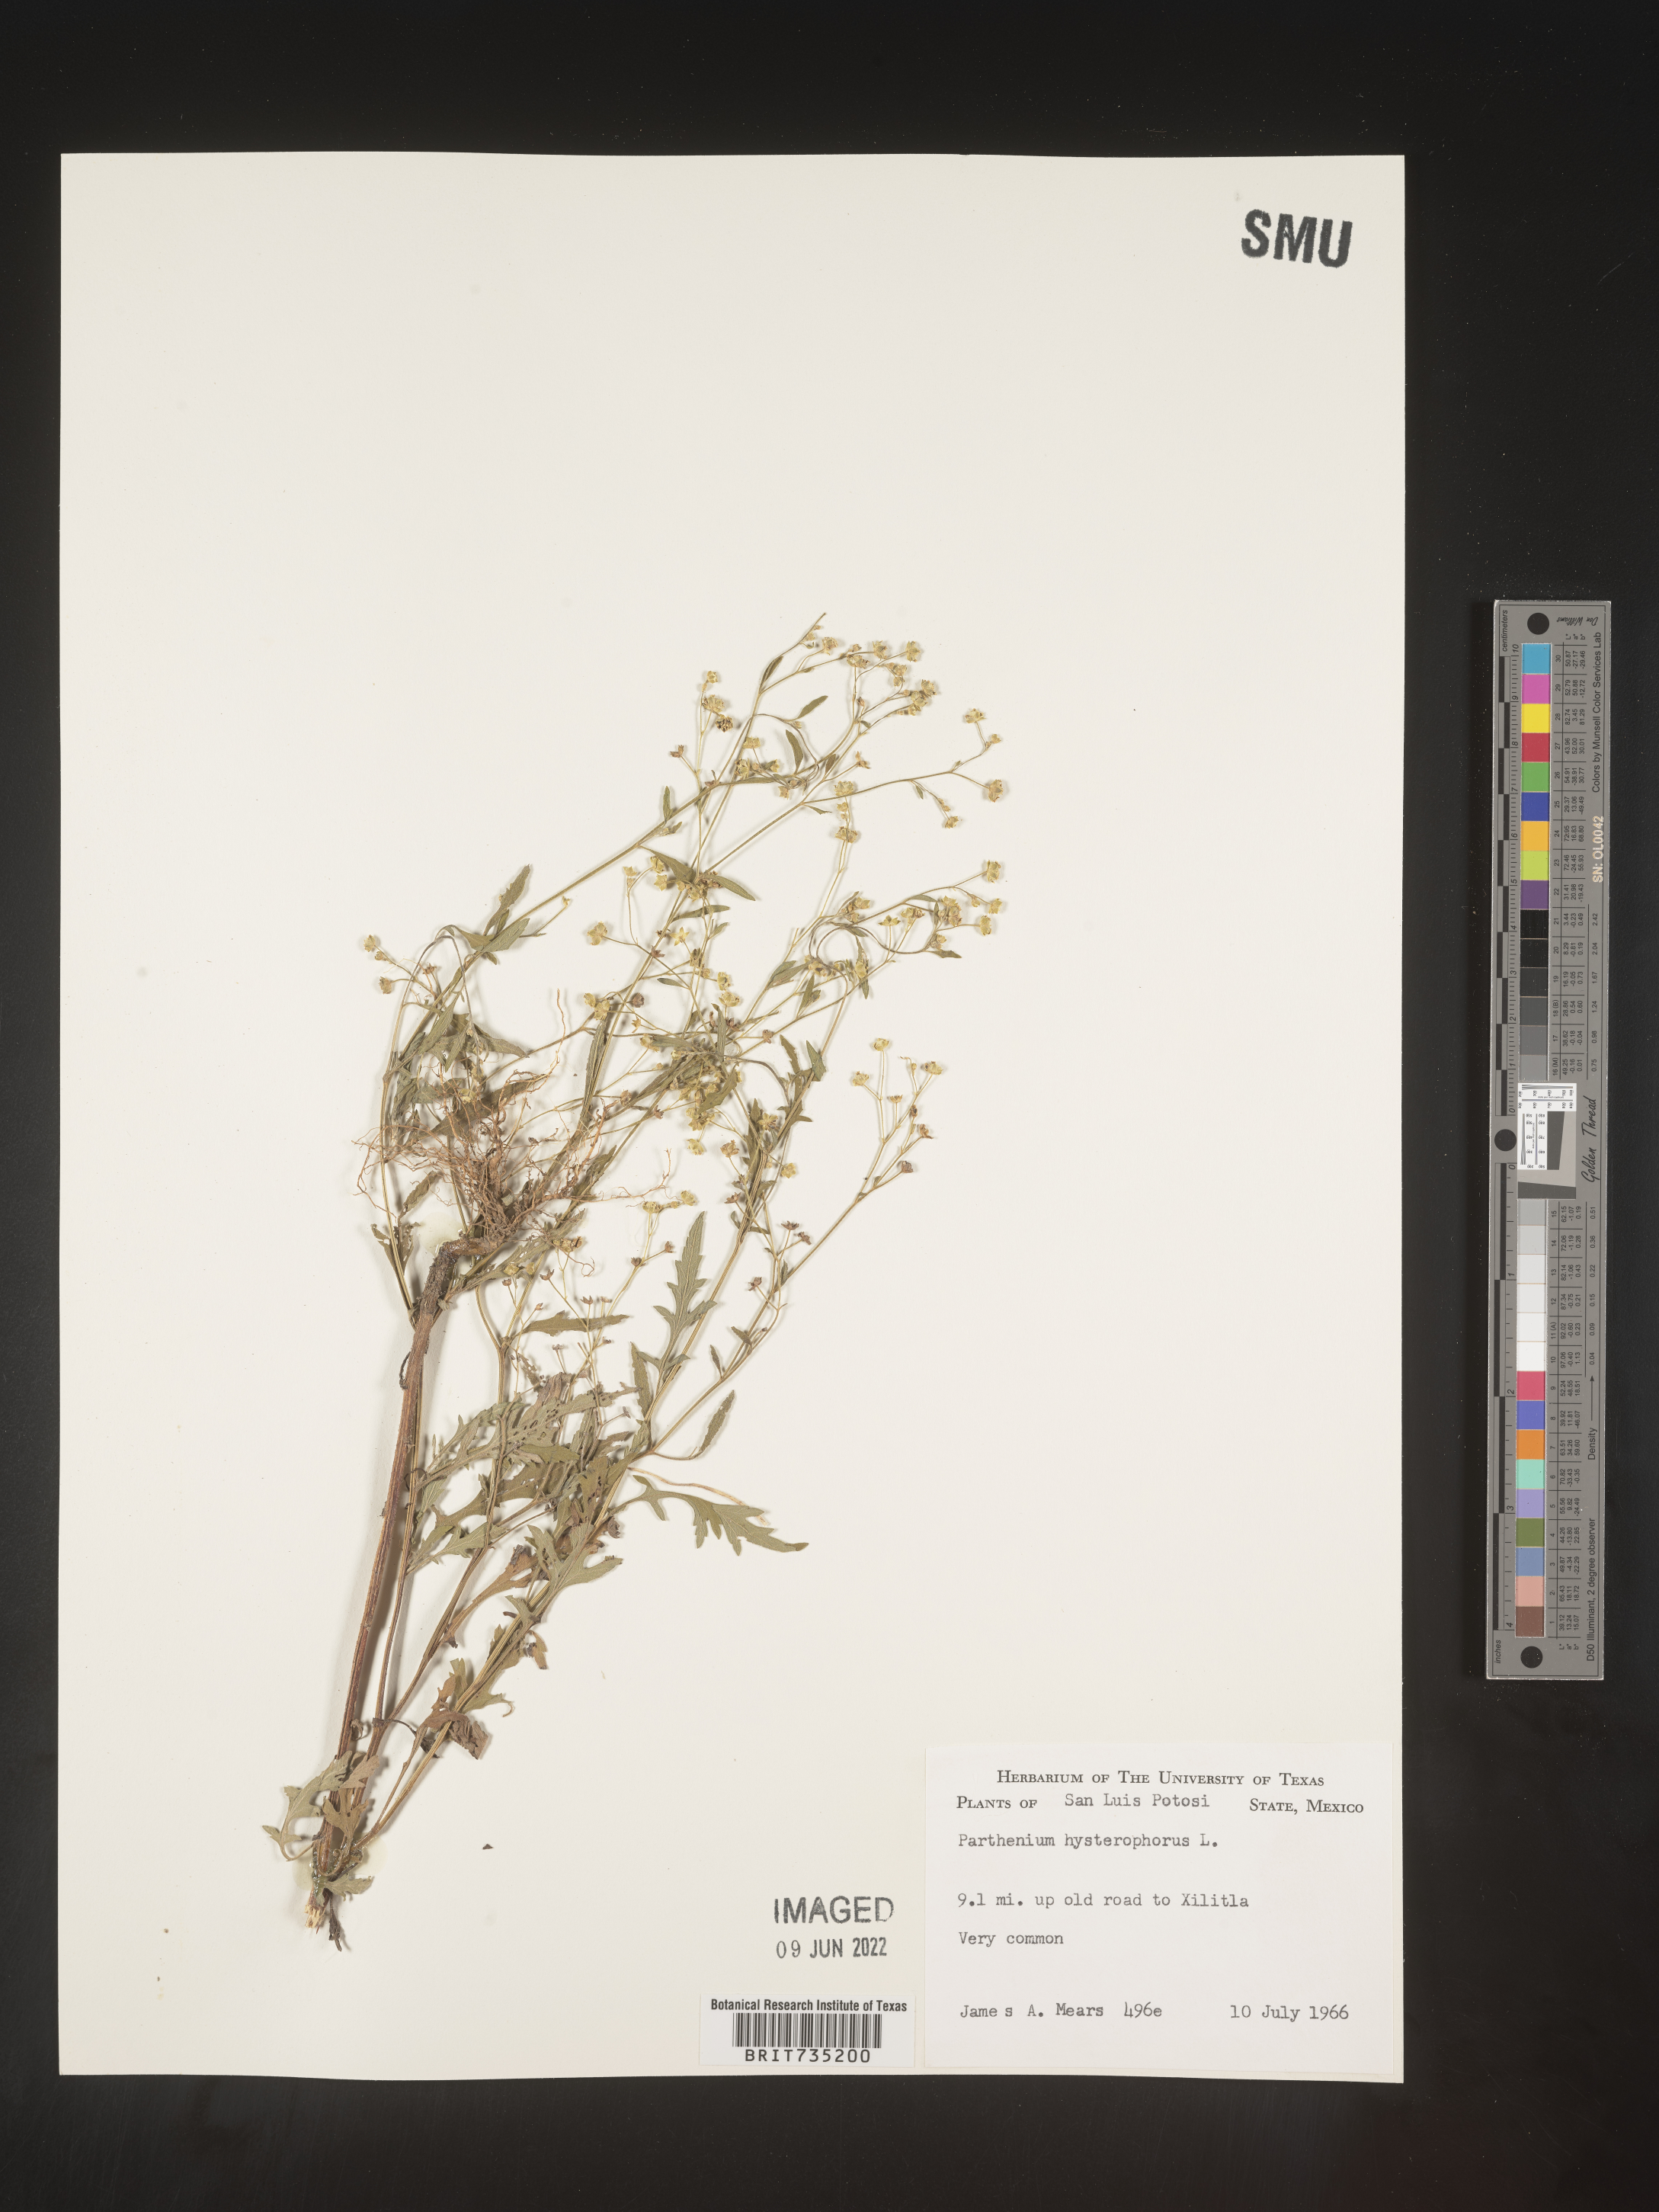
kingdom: Plantae
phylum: Tracheophyta
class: Magnoliopsida
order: Asterales
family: Asteraceae
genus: Parthenium
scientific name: Parthenium hysterophorus
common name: Santa maria feverfew
